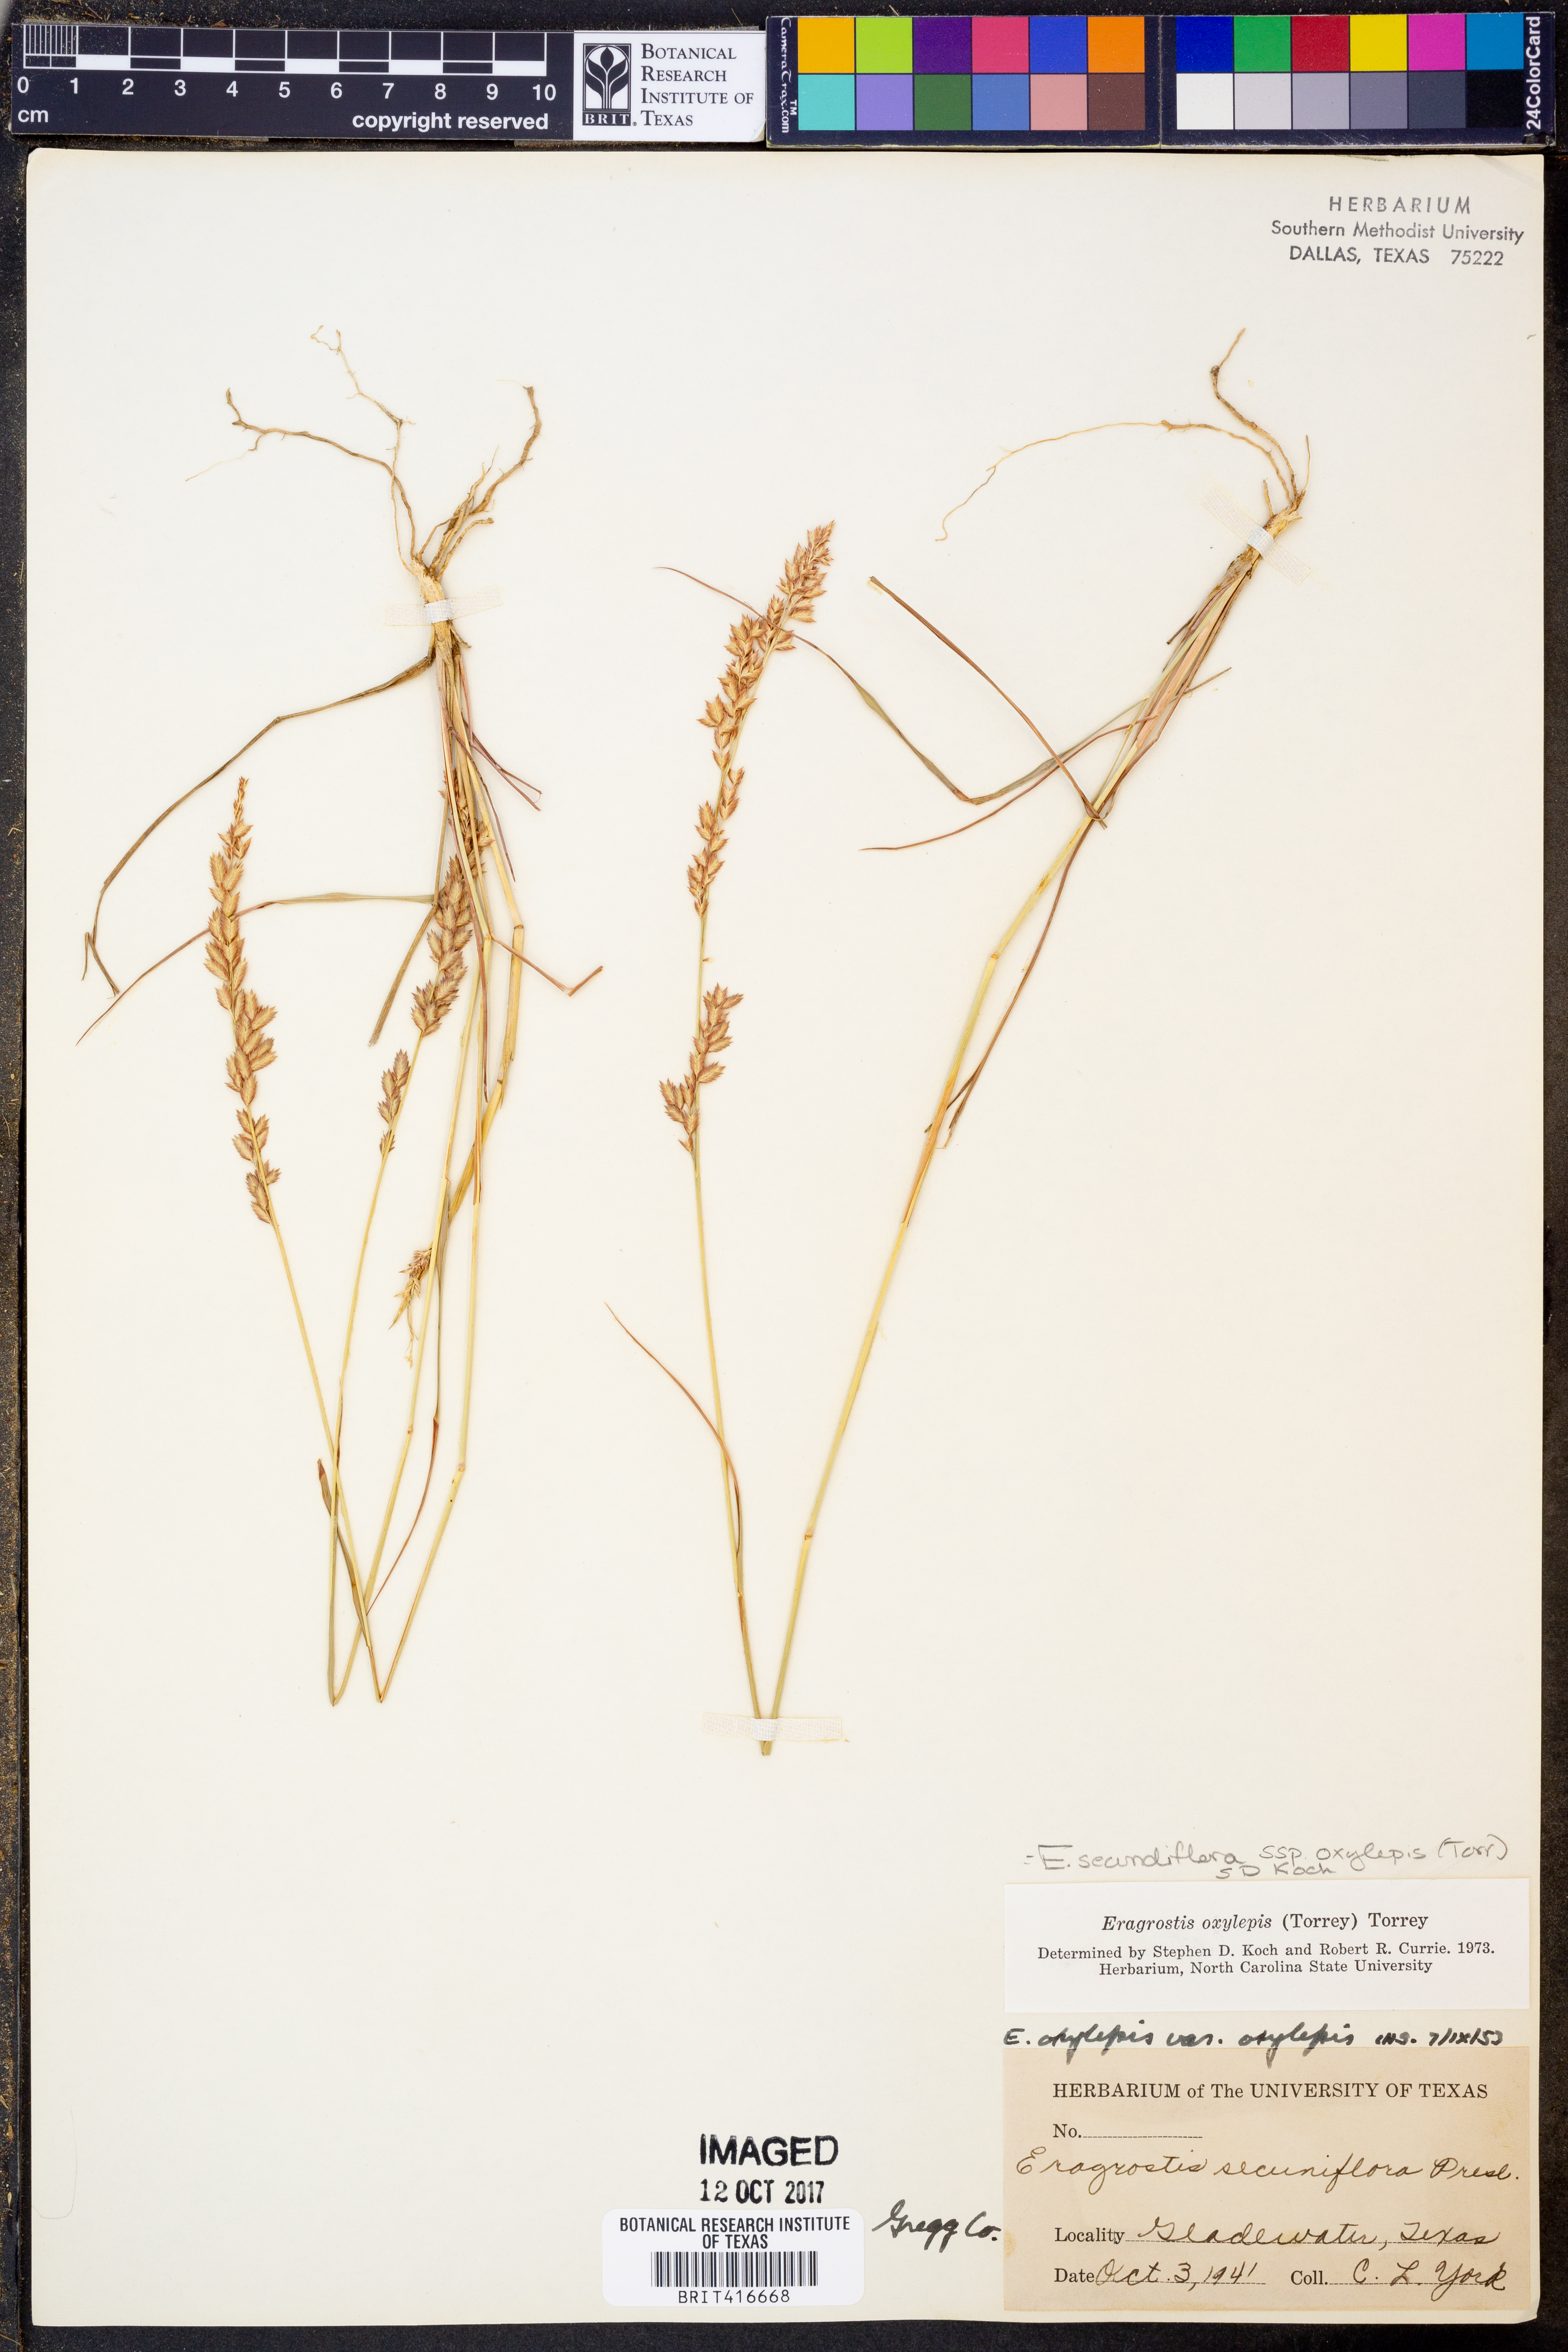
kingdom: Plantae
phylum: Tracheophyta
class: Liliopsida
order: Poales
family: Poaceae
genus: Eragrostis
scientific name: Eragrostis secundiflora
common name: Red love grass
